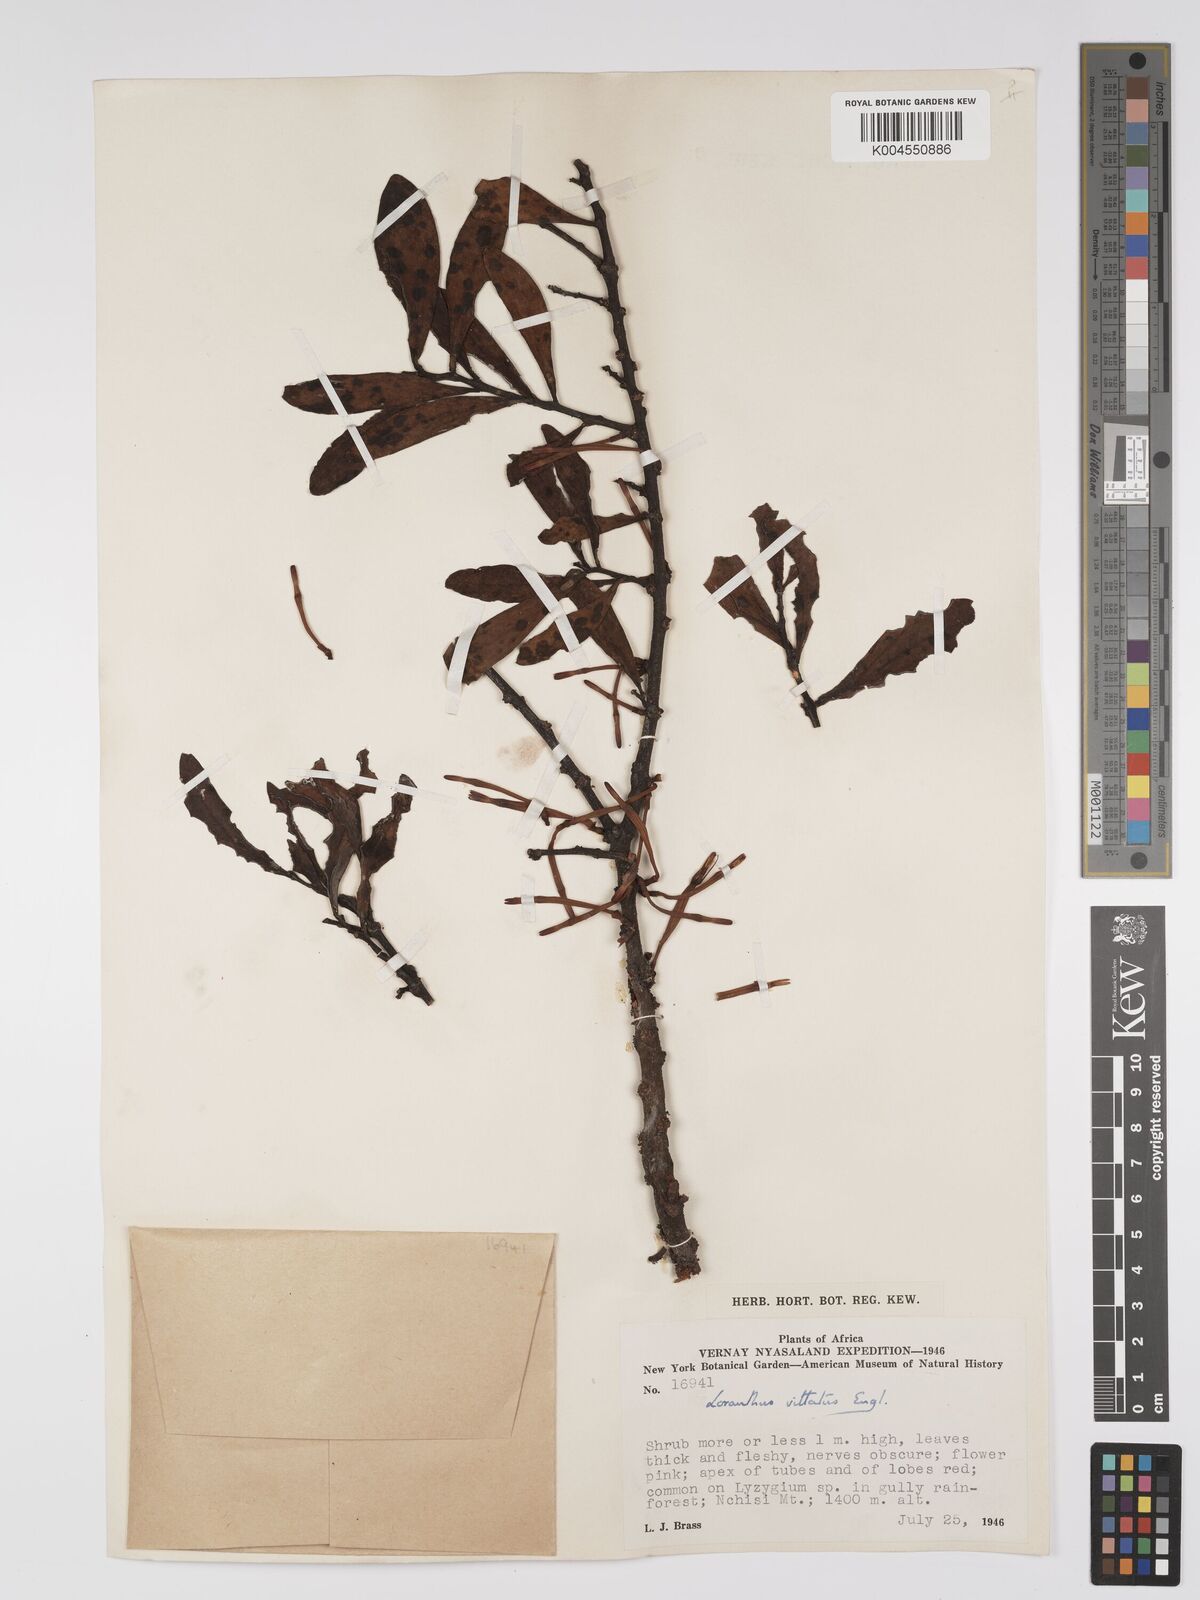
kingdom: Plantae
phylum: Tracheophyta
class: Magnoliopsida
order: Santalales
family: Loranthaceae
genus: Agelanthus
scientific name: Agelanthus zizyphifolius
